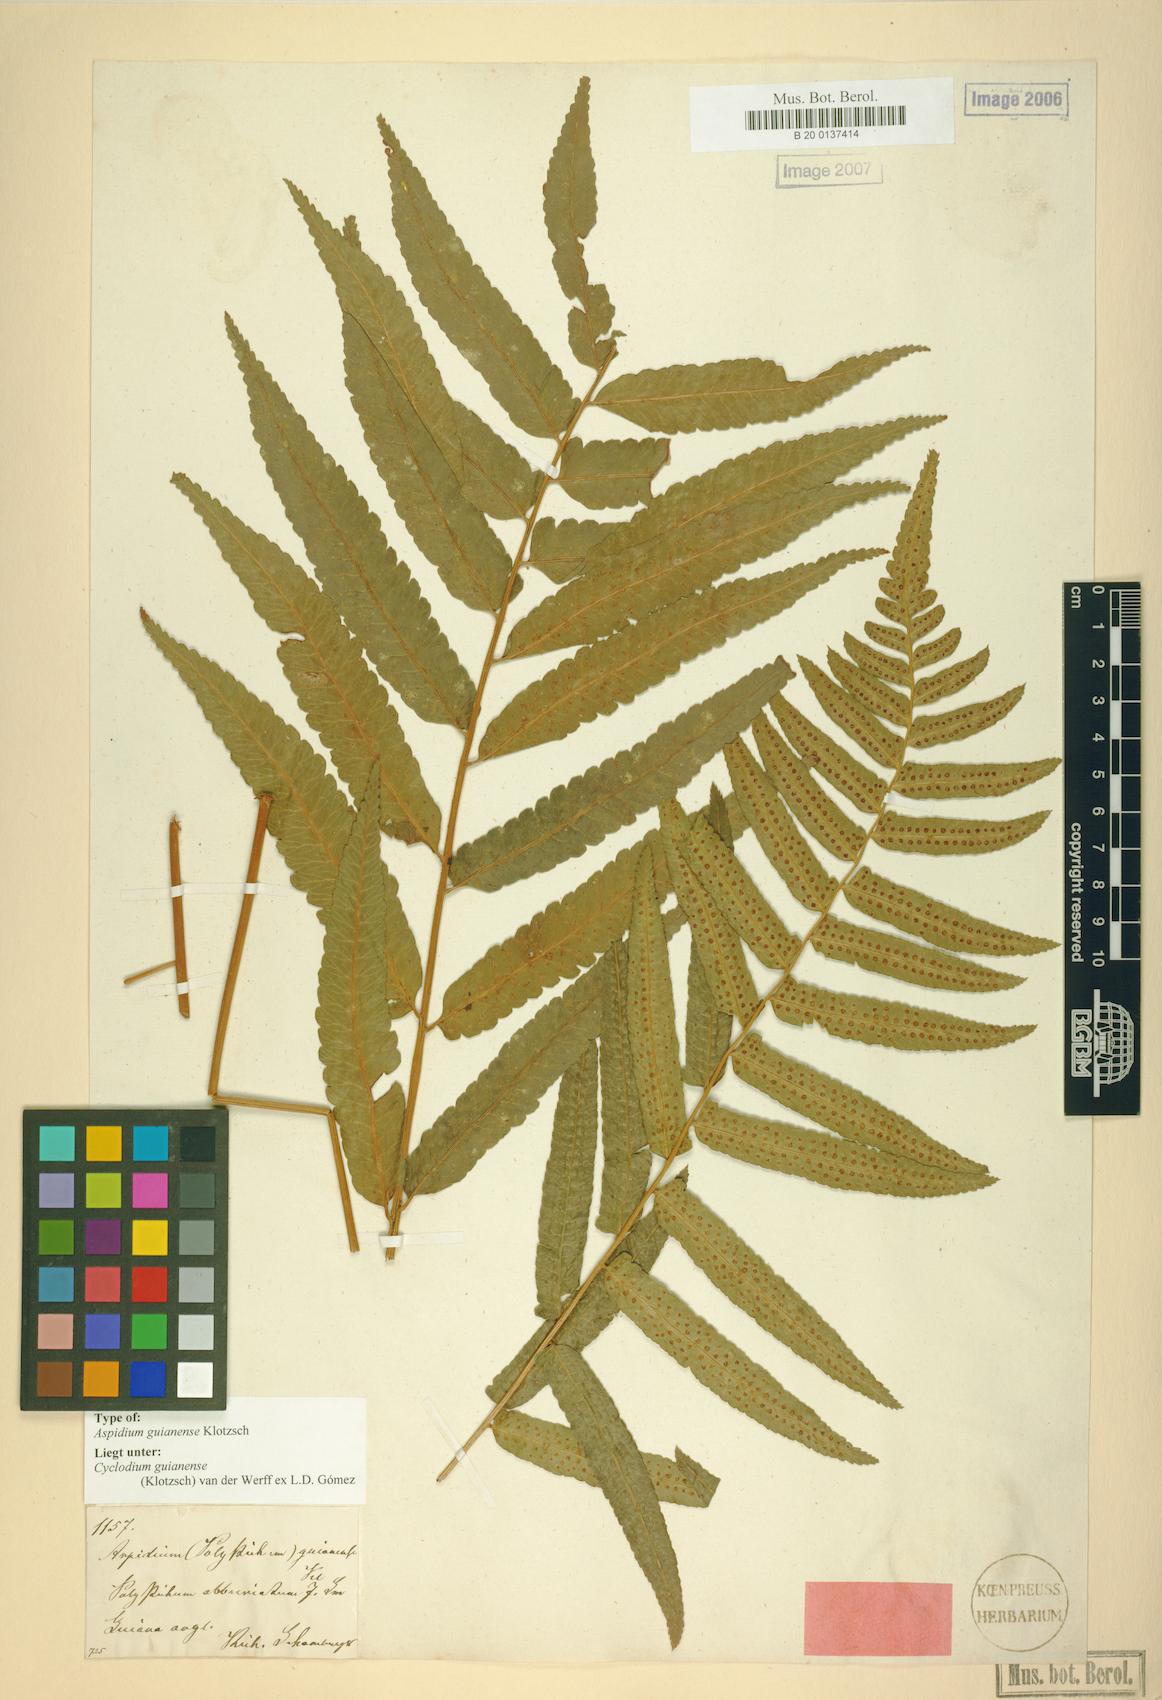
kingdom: Plantae
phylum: Tracheophyta
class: Polypodiopsida
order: Polypodiales
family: Dryopteridaceae
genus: Cyclodium
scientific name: Cyclodium guianense
